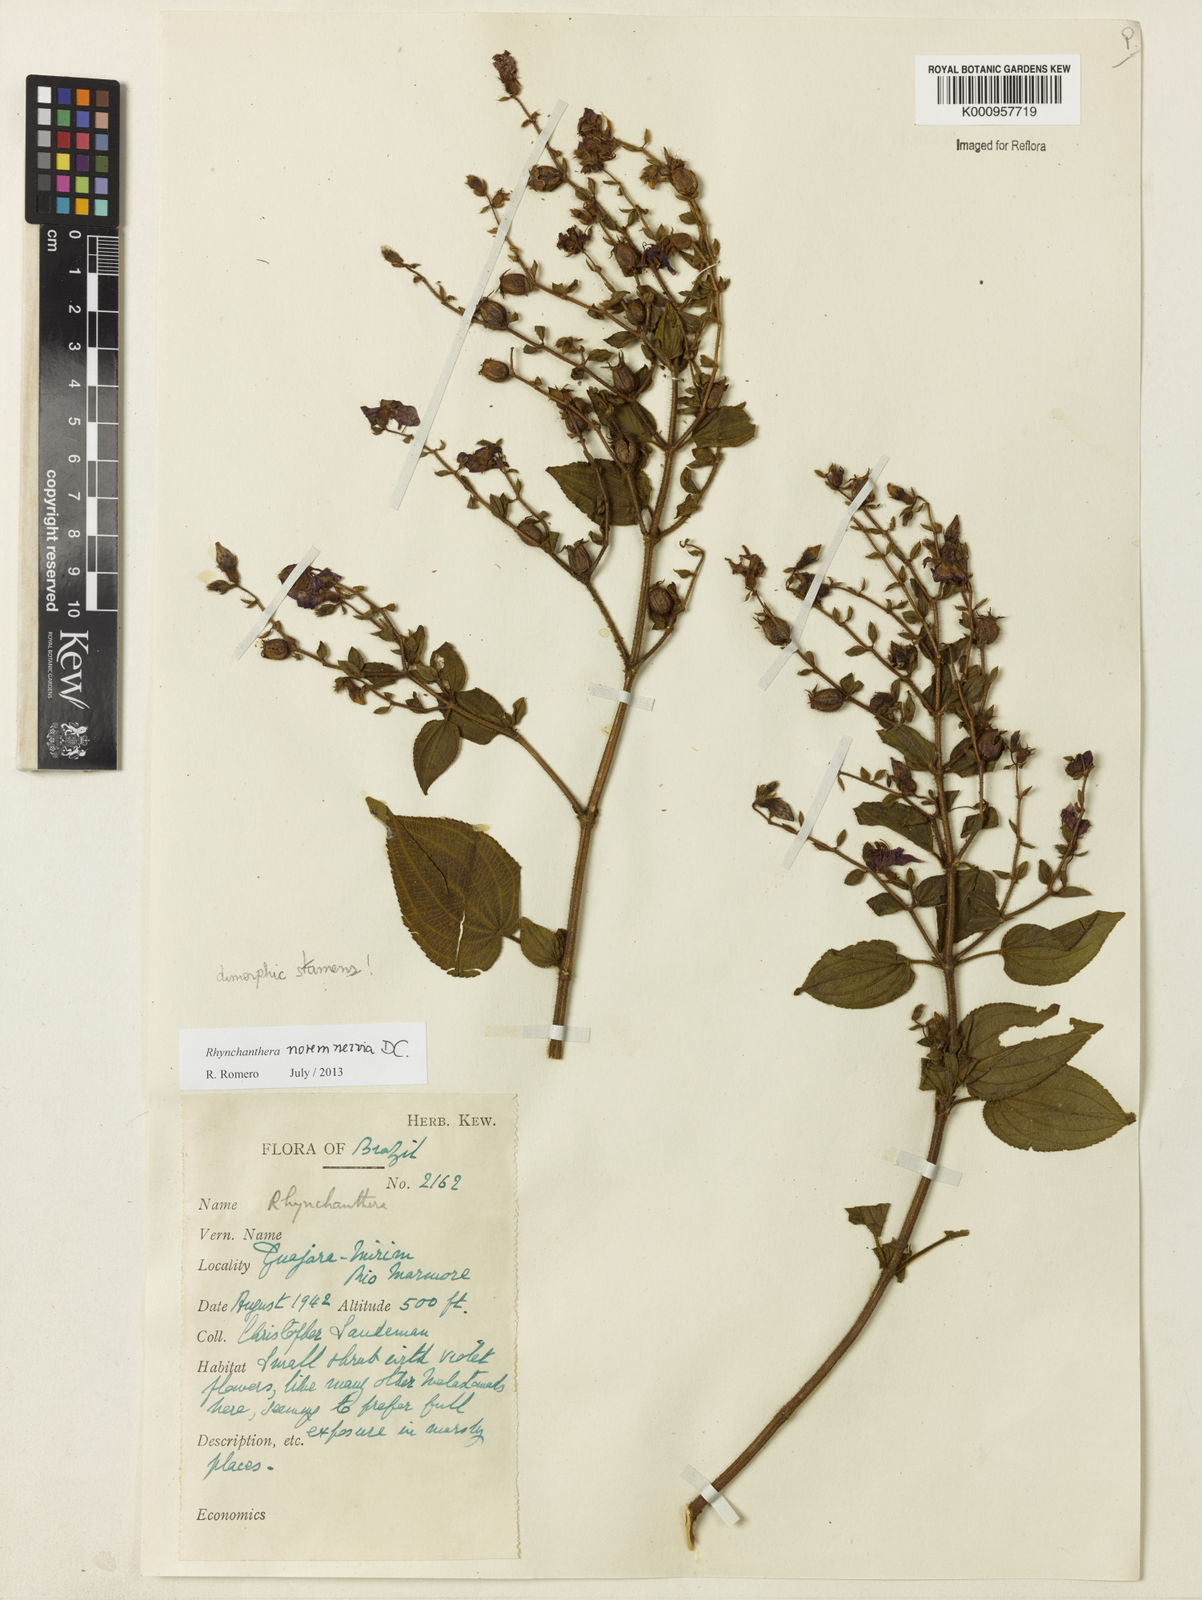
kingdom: Plantae
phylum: Tracheophyta
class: Magnoliopsida
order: Myrtales
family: Melastomataceae
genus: Rhynchanthera
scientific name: Rhynchanthera novemnervia
